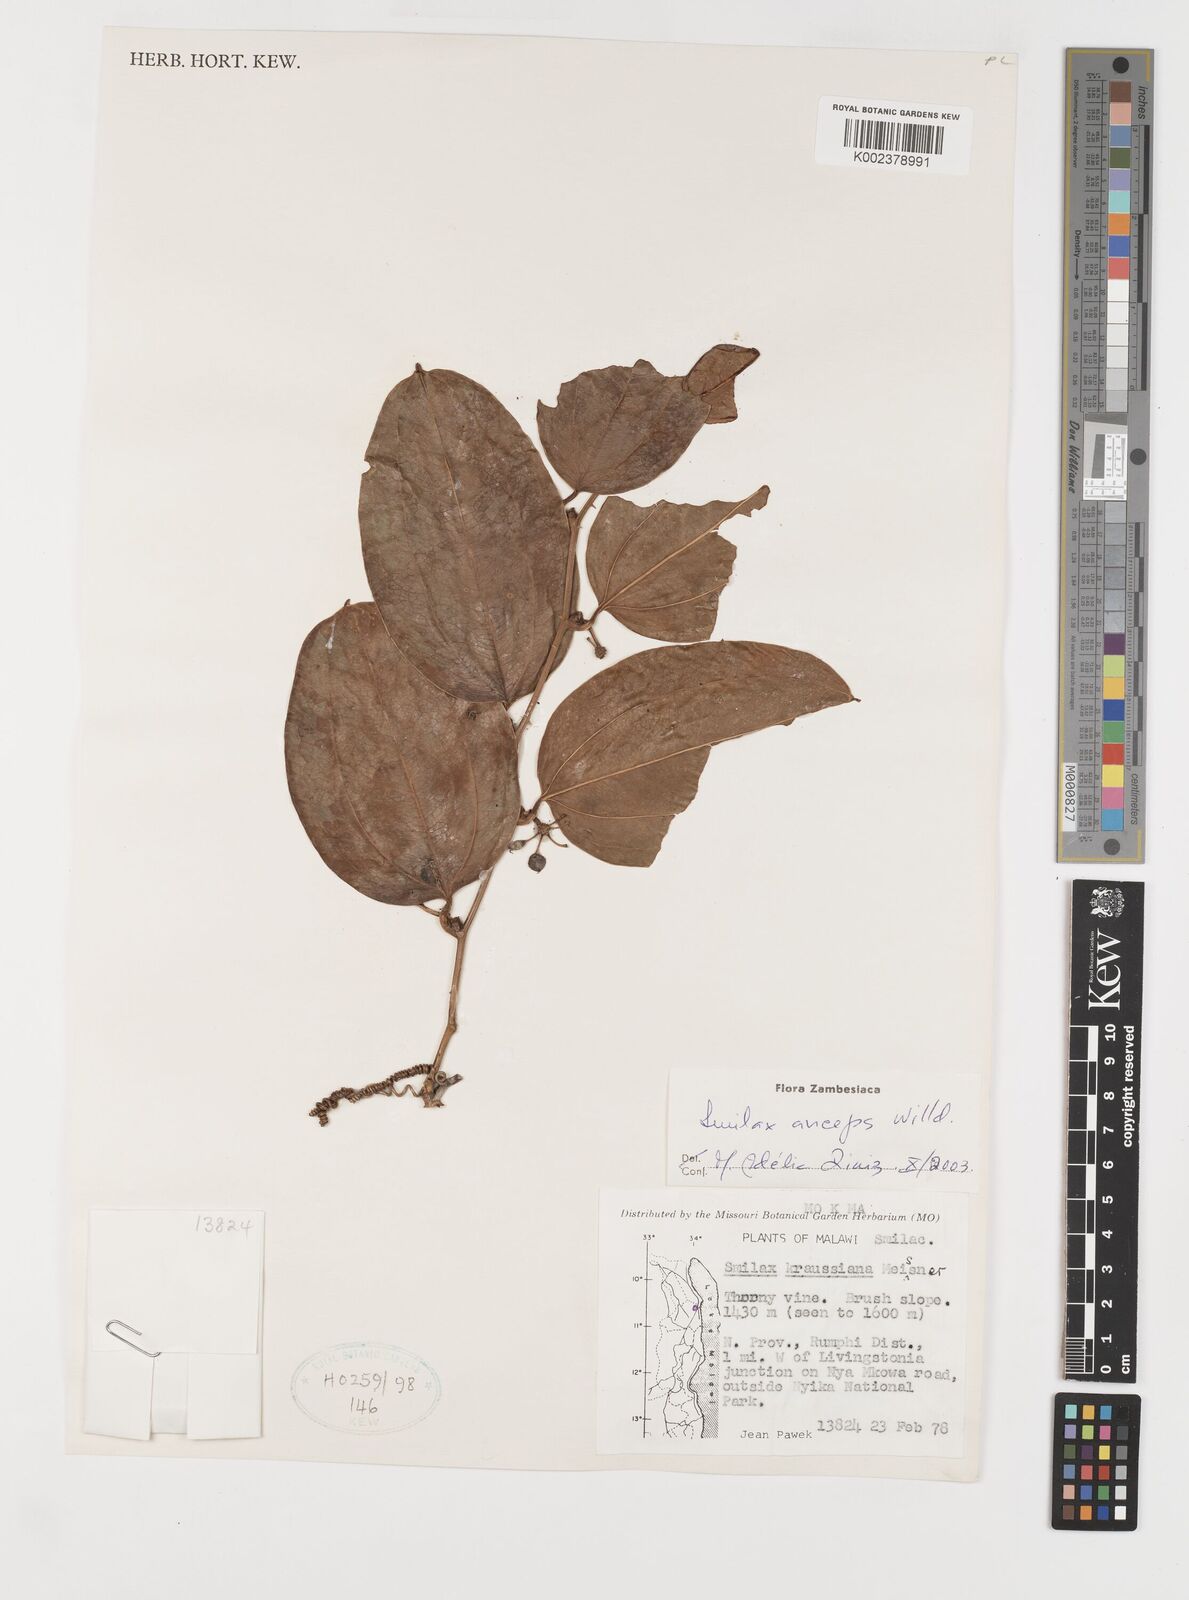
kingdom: Plantae
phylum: Tracheophyta
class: Liliopsida
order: Liliales
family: Smilacaceae
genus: Smilax
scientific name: Smilax anceps
